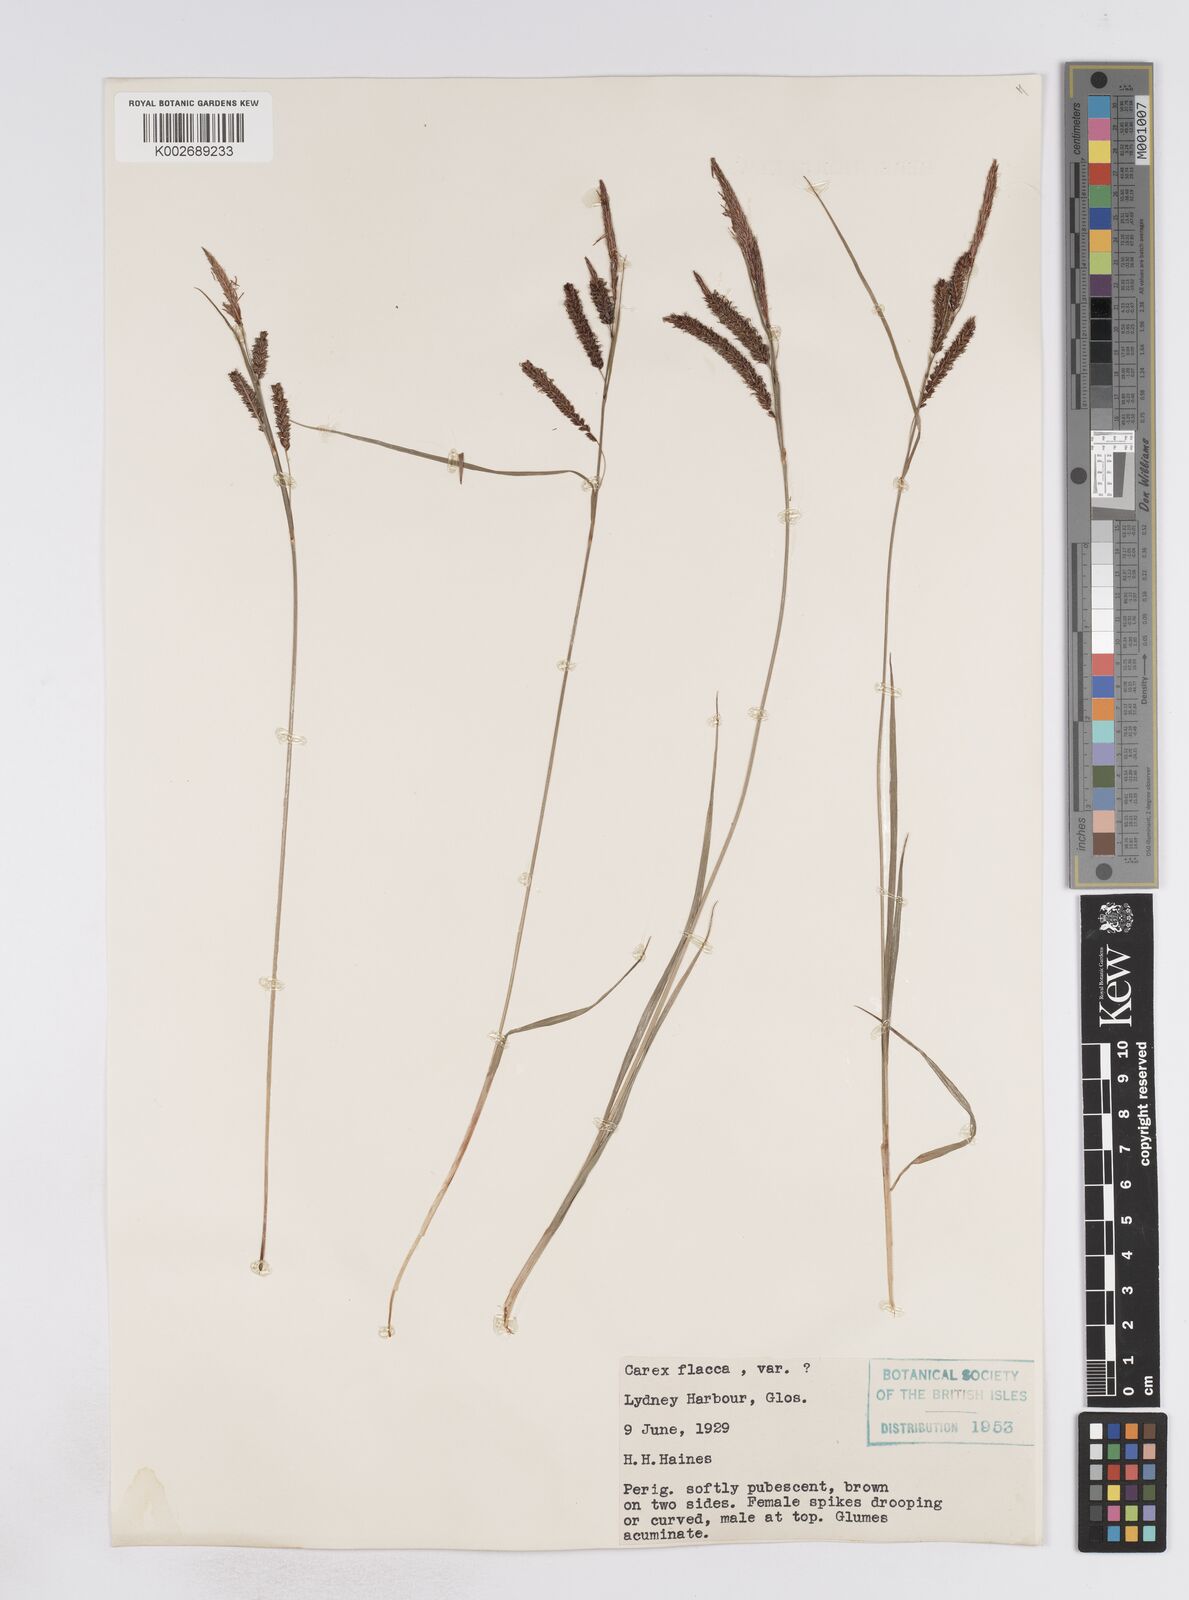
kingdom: Plantae
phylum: Tracheophyta
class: Liliopsida
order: Poales
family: Cyperaceae
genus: Carex
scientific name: Carex flacca
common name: Glaucous sedge
